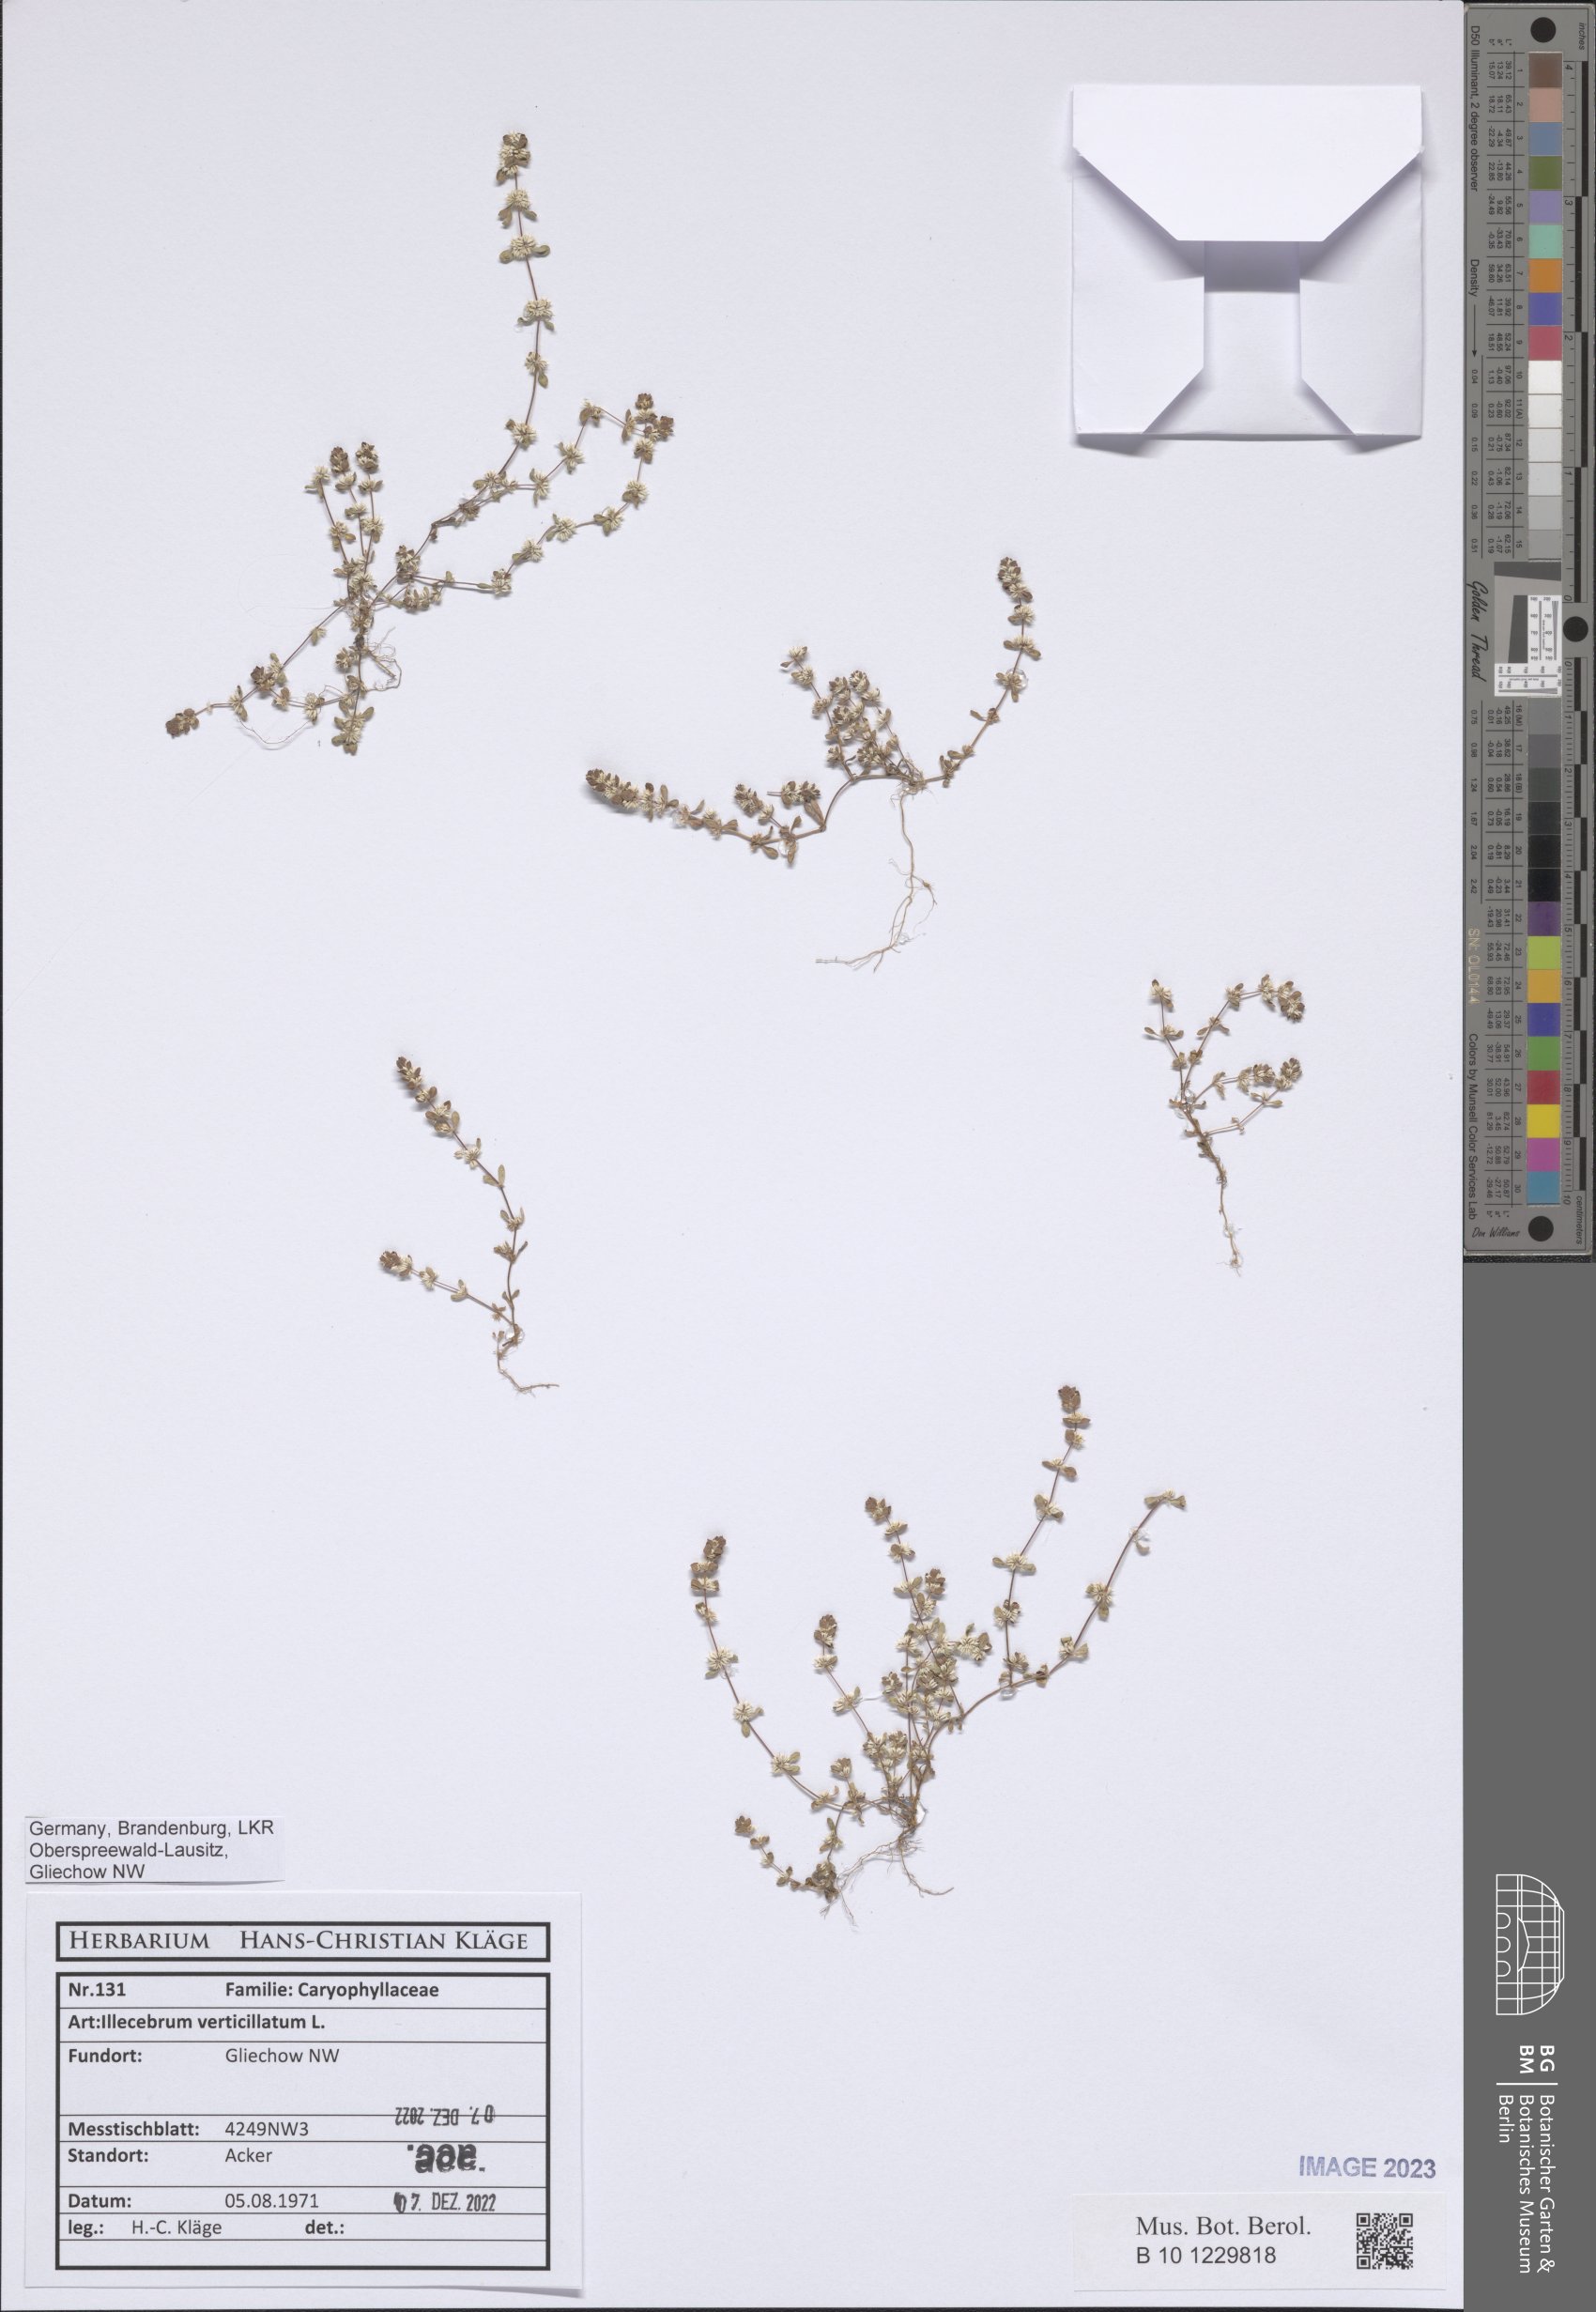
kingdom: Plantae
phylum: Tracheophyta
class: Magnoliopsida
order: Caryophyllales
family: Caryophyllaceae
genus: Illecebrum
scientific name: Illecebrum verticillatum
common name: Coral necklace
